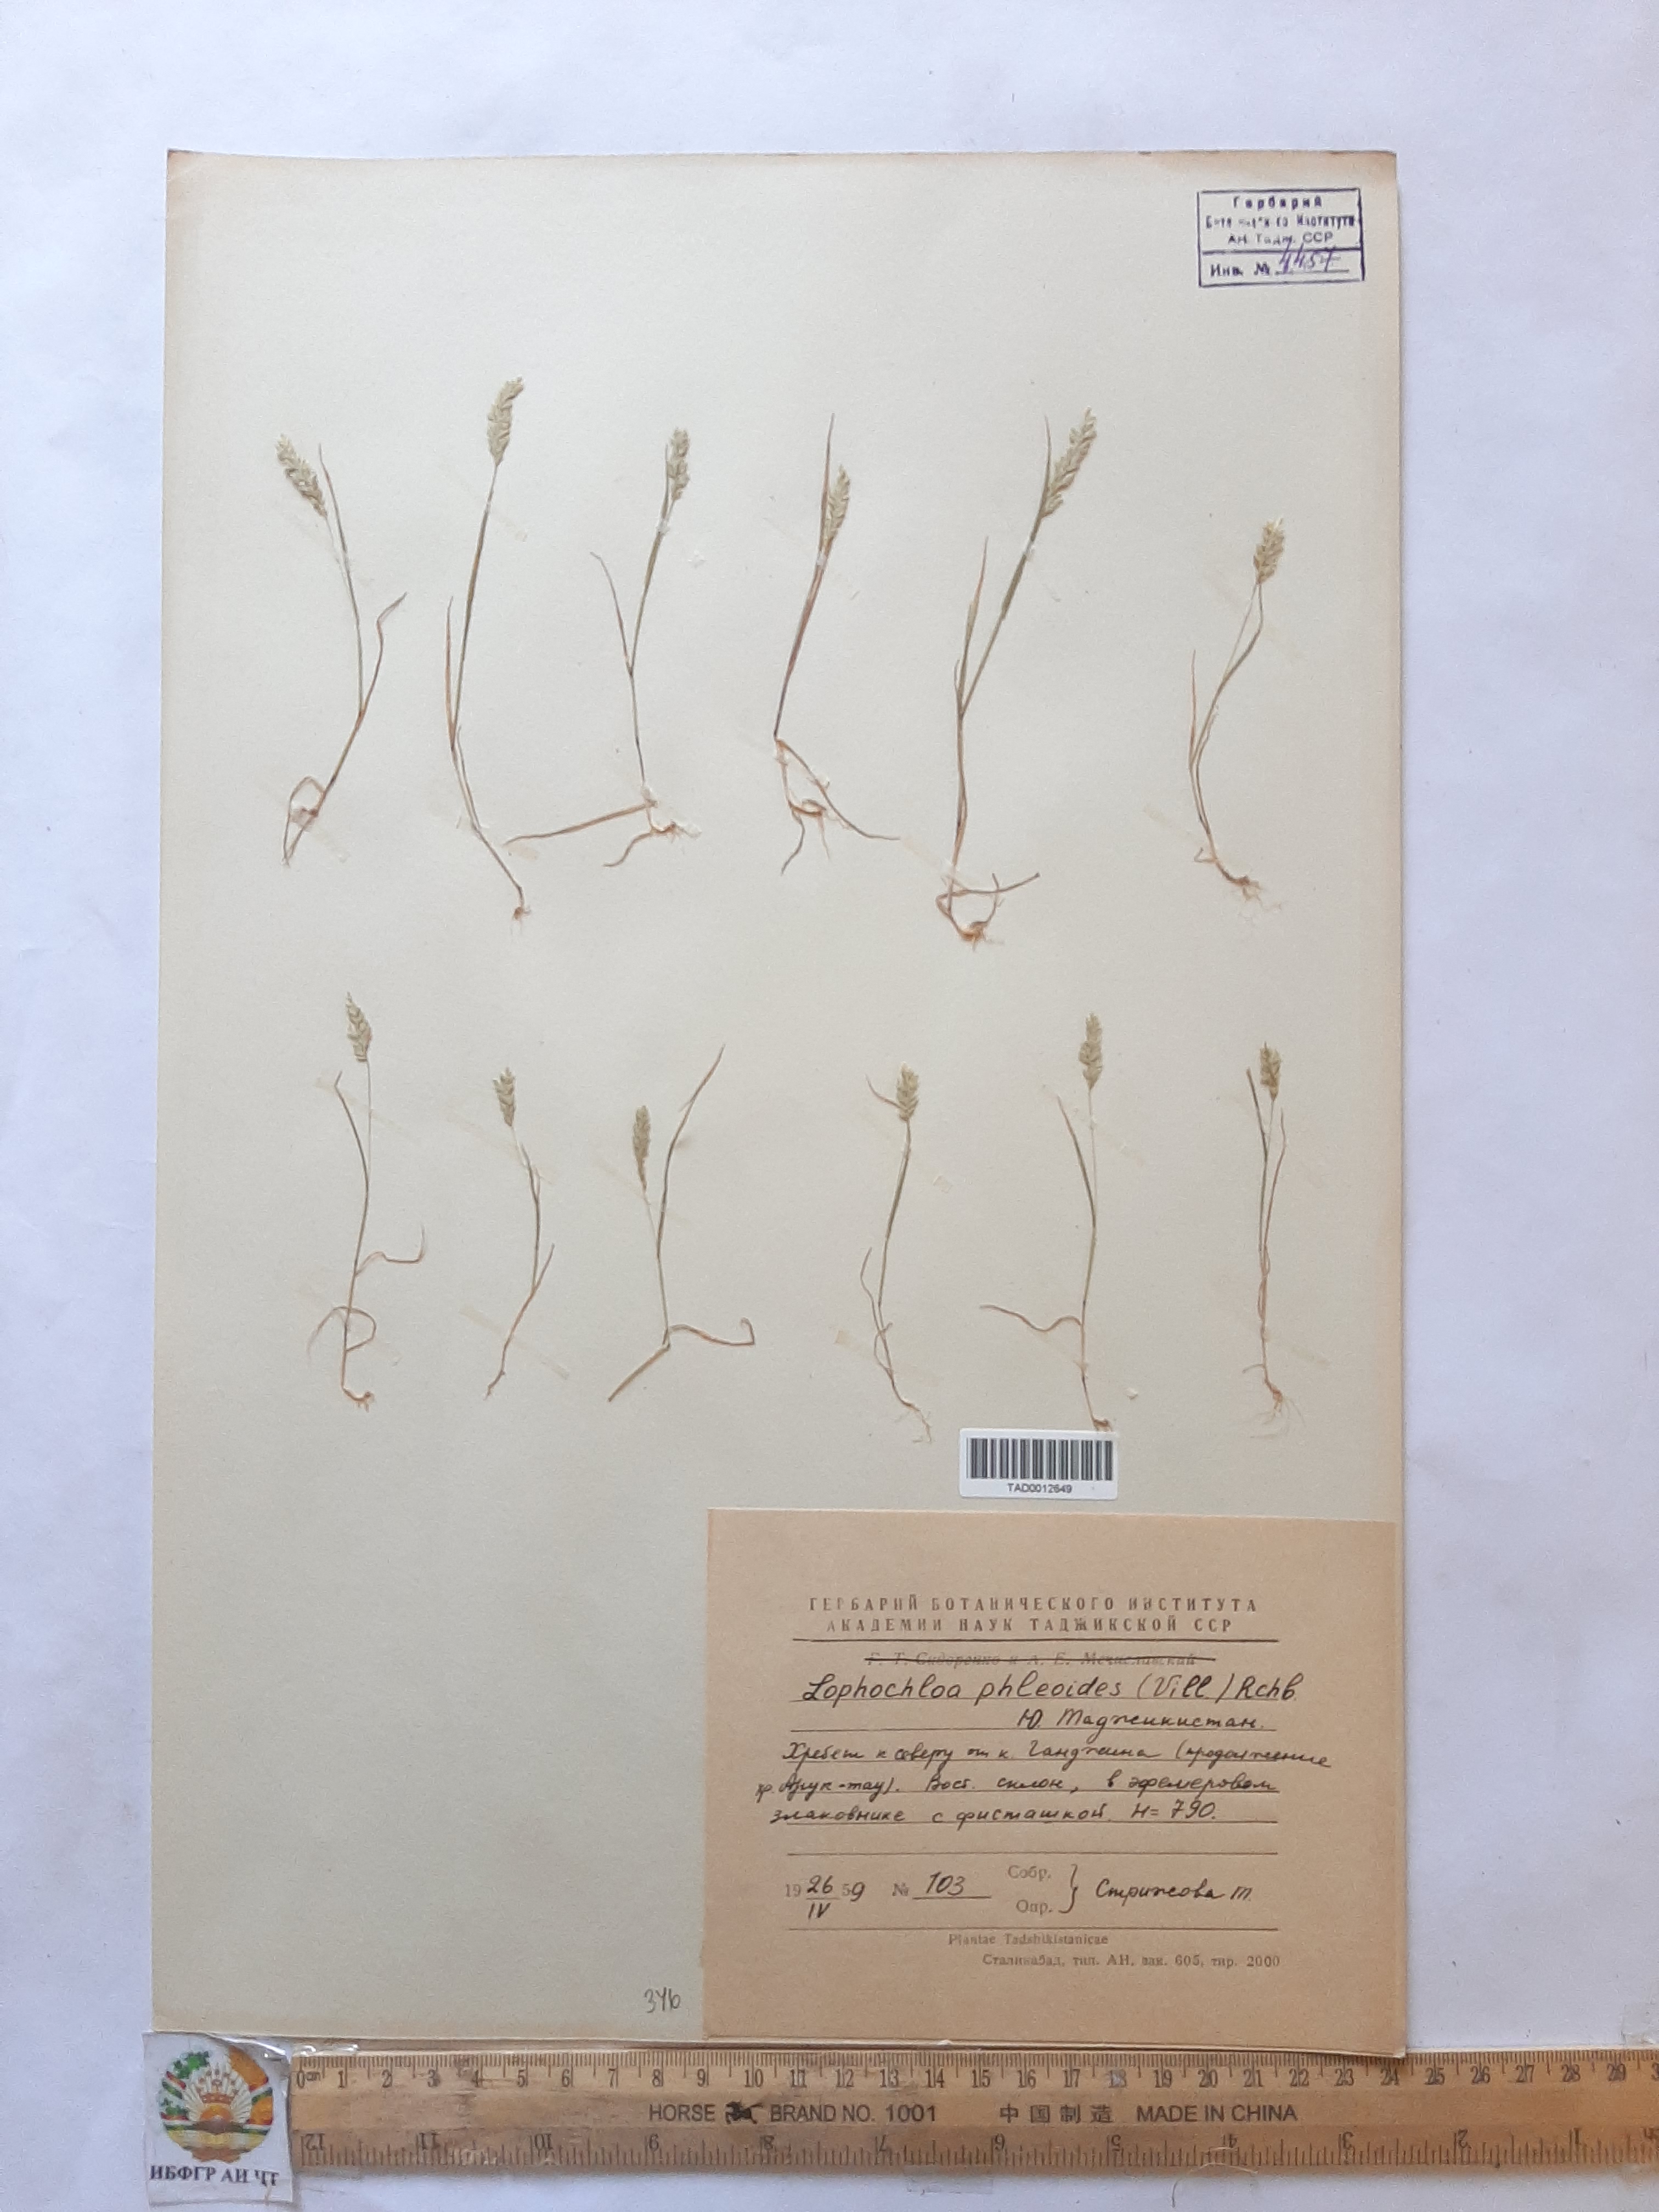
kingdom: Plantae
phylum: Tracheophyta
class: Liliopsida
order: Poales
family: Poaceae
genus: Rostraria
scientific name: Rostraria cristata
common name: Mediterranean hair-grass
